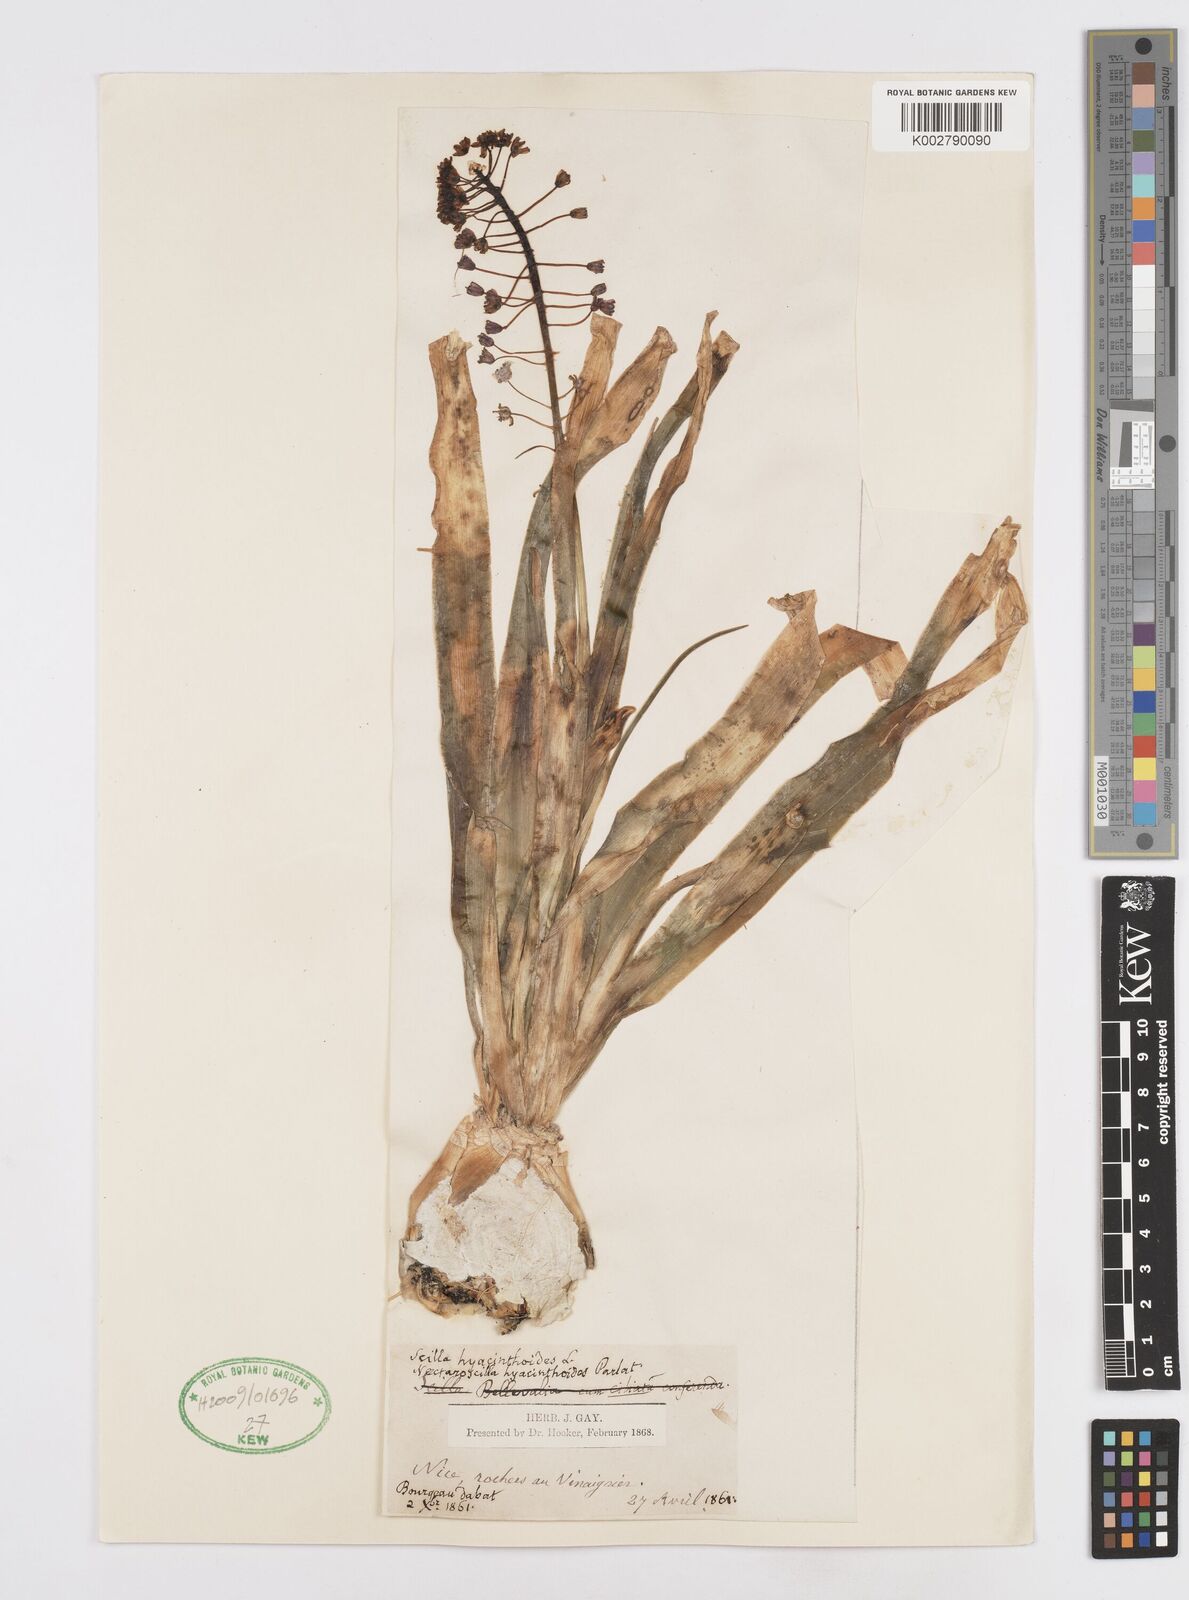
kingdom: Plantae
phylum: Tracheophyta
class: Liliopsida
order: Asparagales
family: Asparagaceae
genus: Scilla
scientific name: Scilla hyacinthoides
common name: Scilla
